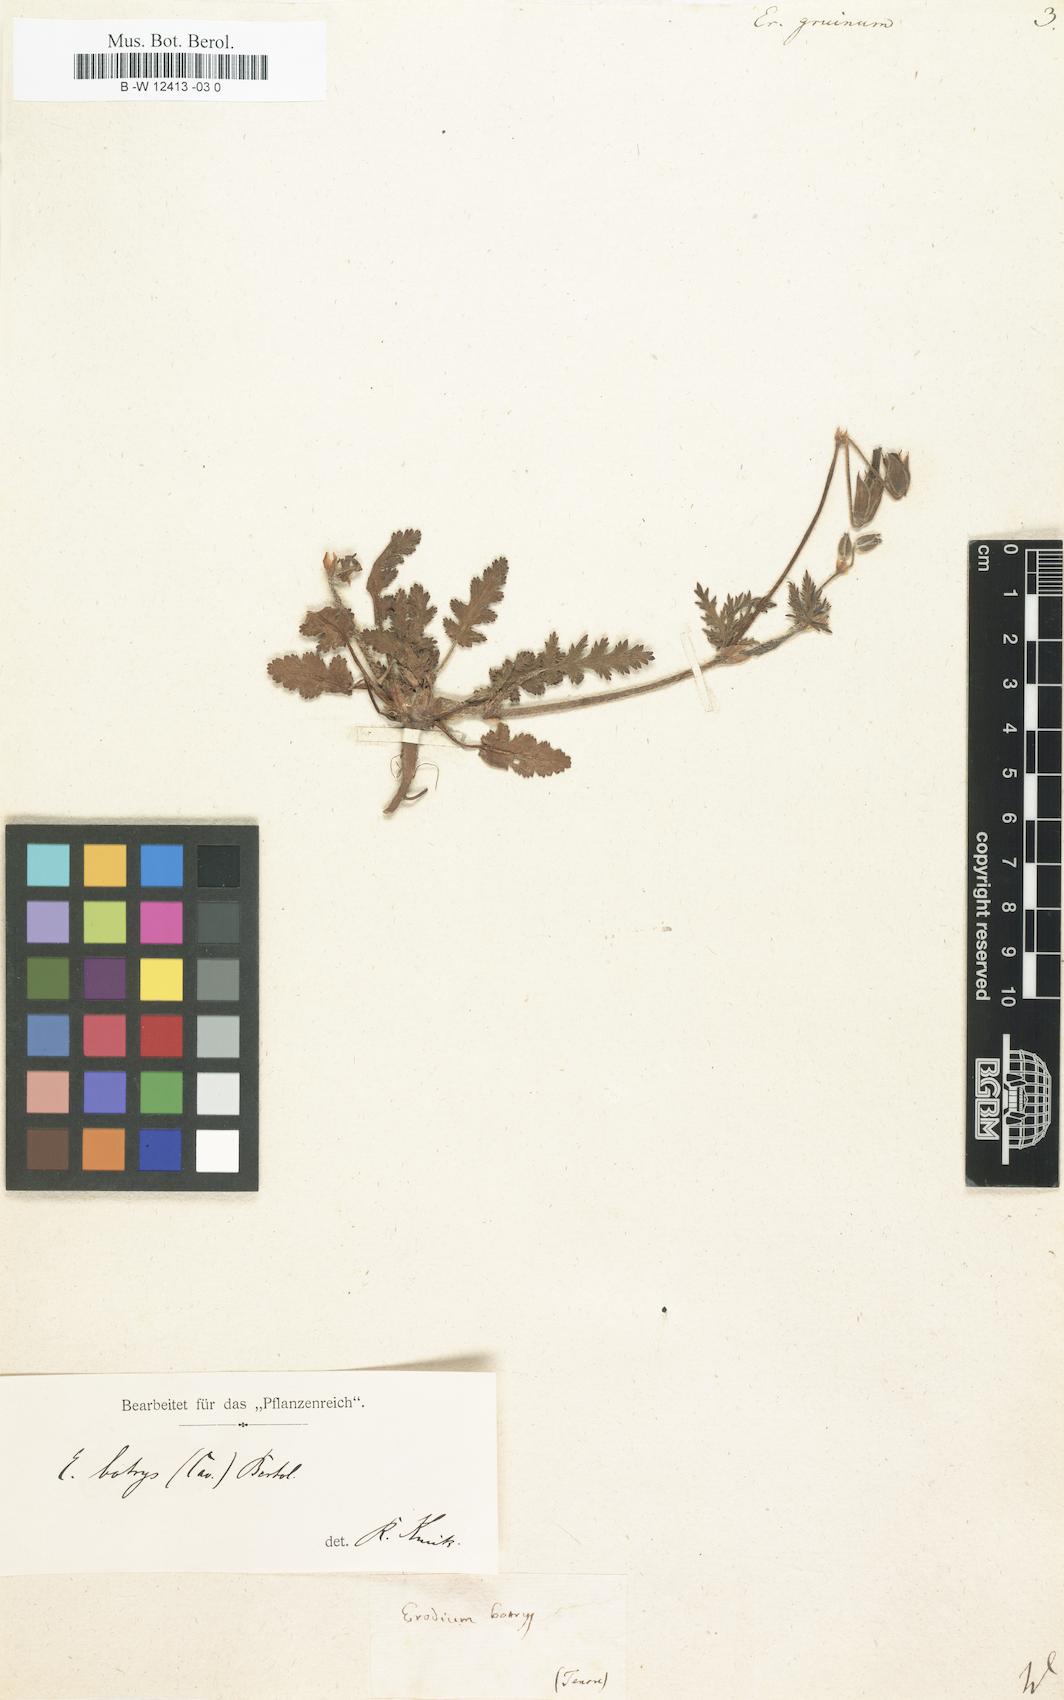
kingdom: Plantae
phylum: Tracheophyta
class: Magnoliopsida
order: Geraniales
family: Geraniaceae
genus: Erodium
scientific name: Erodium gruinum
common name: Iranian stork's bill
